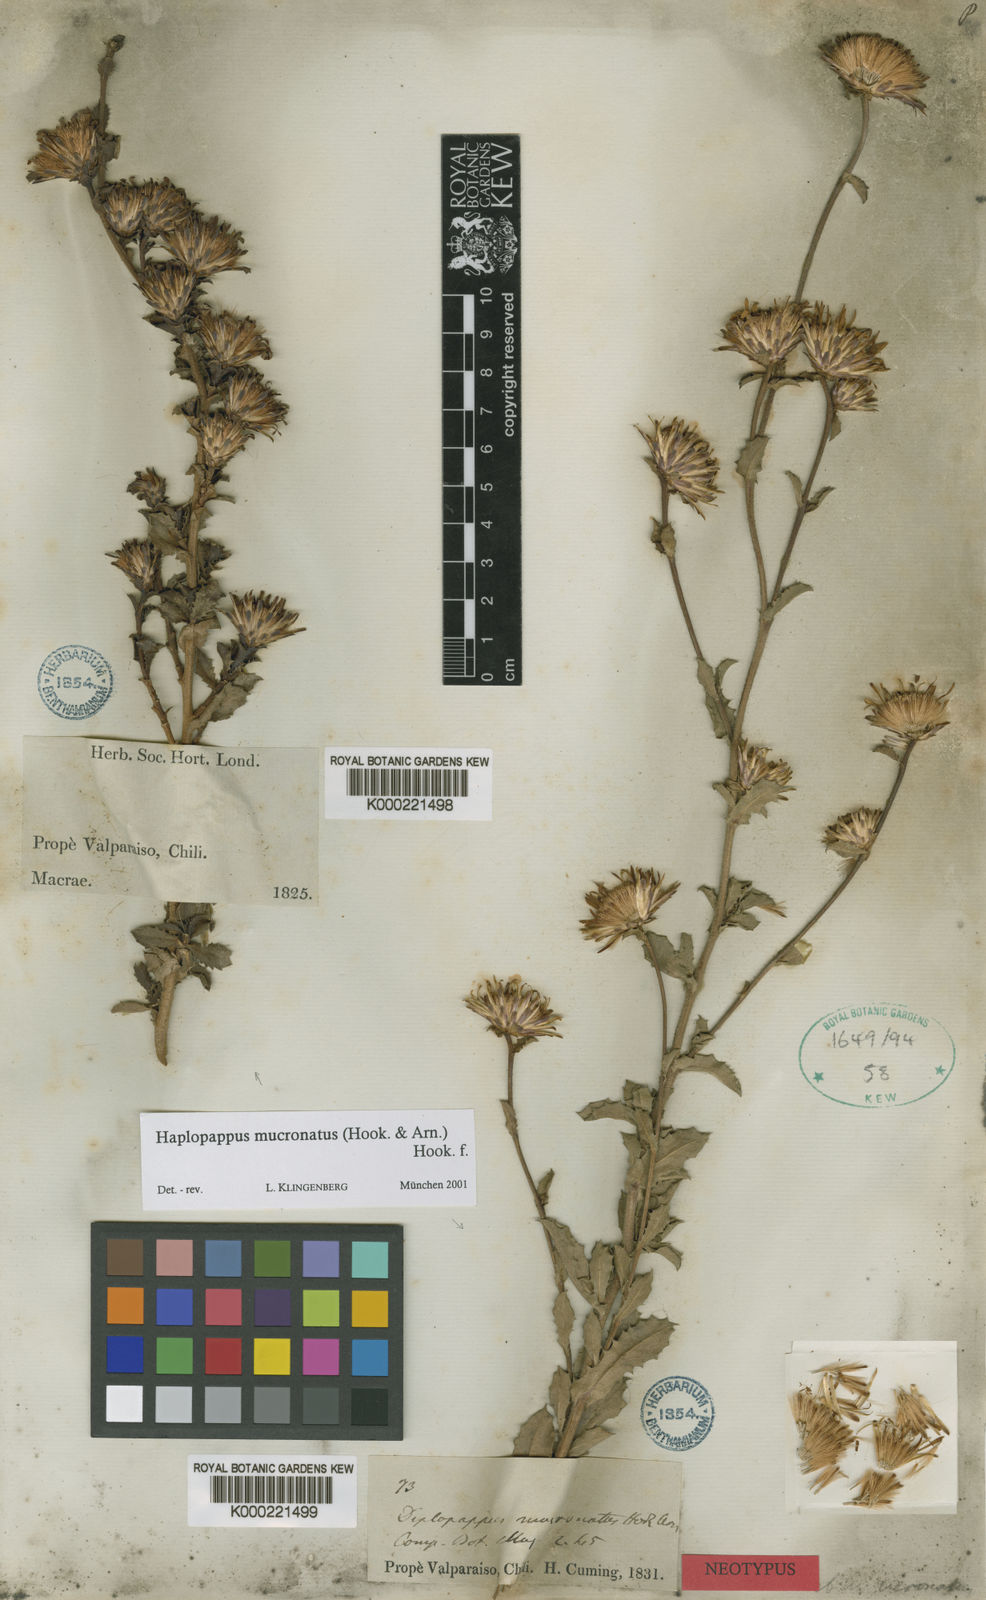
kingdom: Plantae
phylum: Tracheophyta
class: Magnoliopsida
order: Asterales
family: Asteraceae
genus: Haplopappus
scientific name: Haplopappus mucronatus
